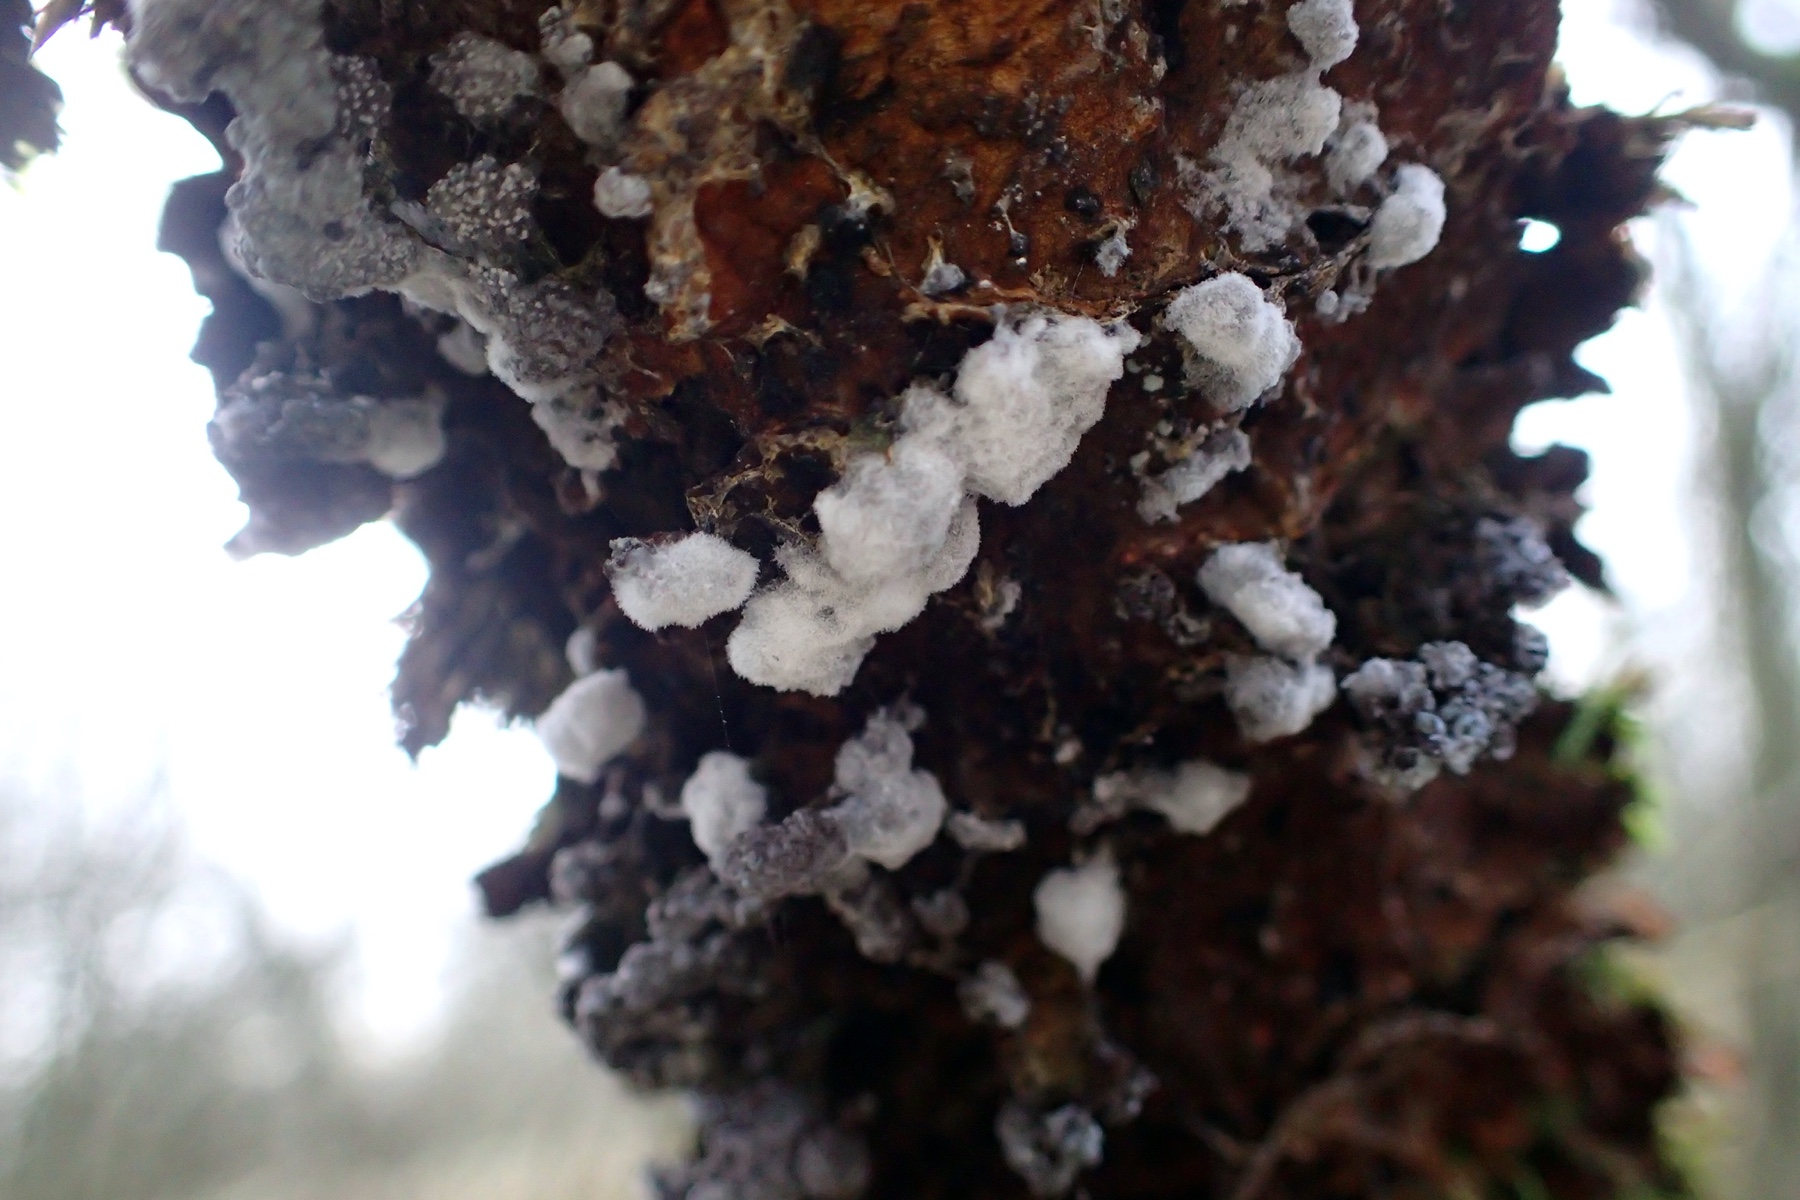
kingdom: Protozoa
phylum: Mycetozoa
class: Myxomycetes
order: Physarales
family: Physaraceae
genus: Badhamia
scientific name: Badhamia utricularis
